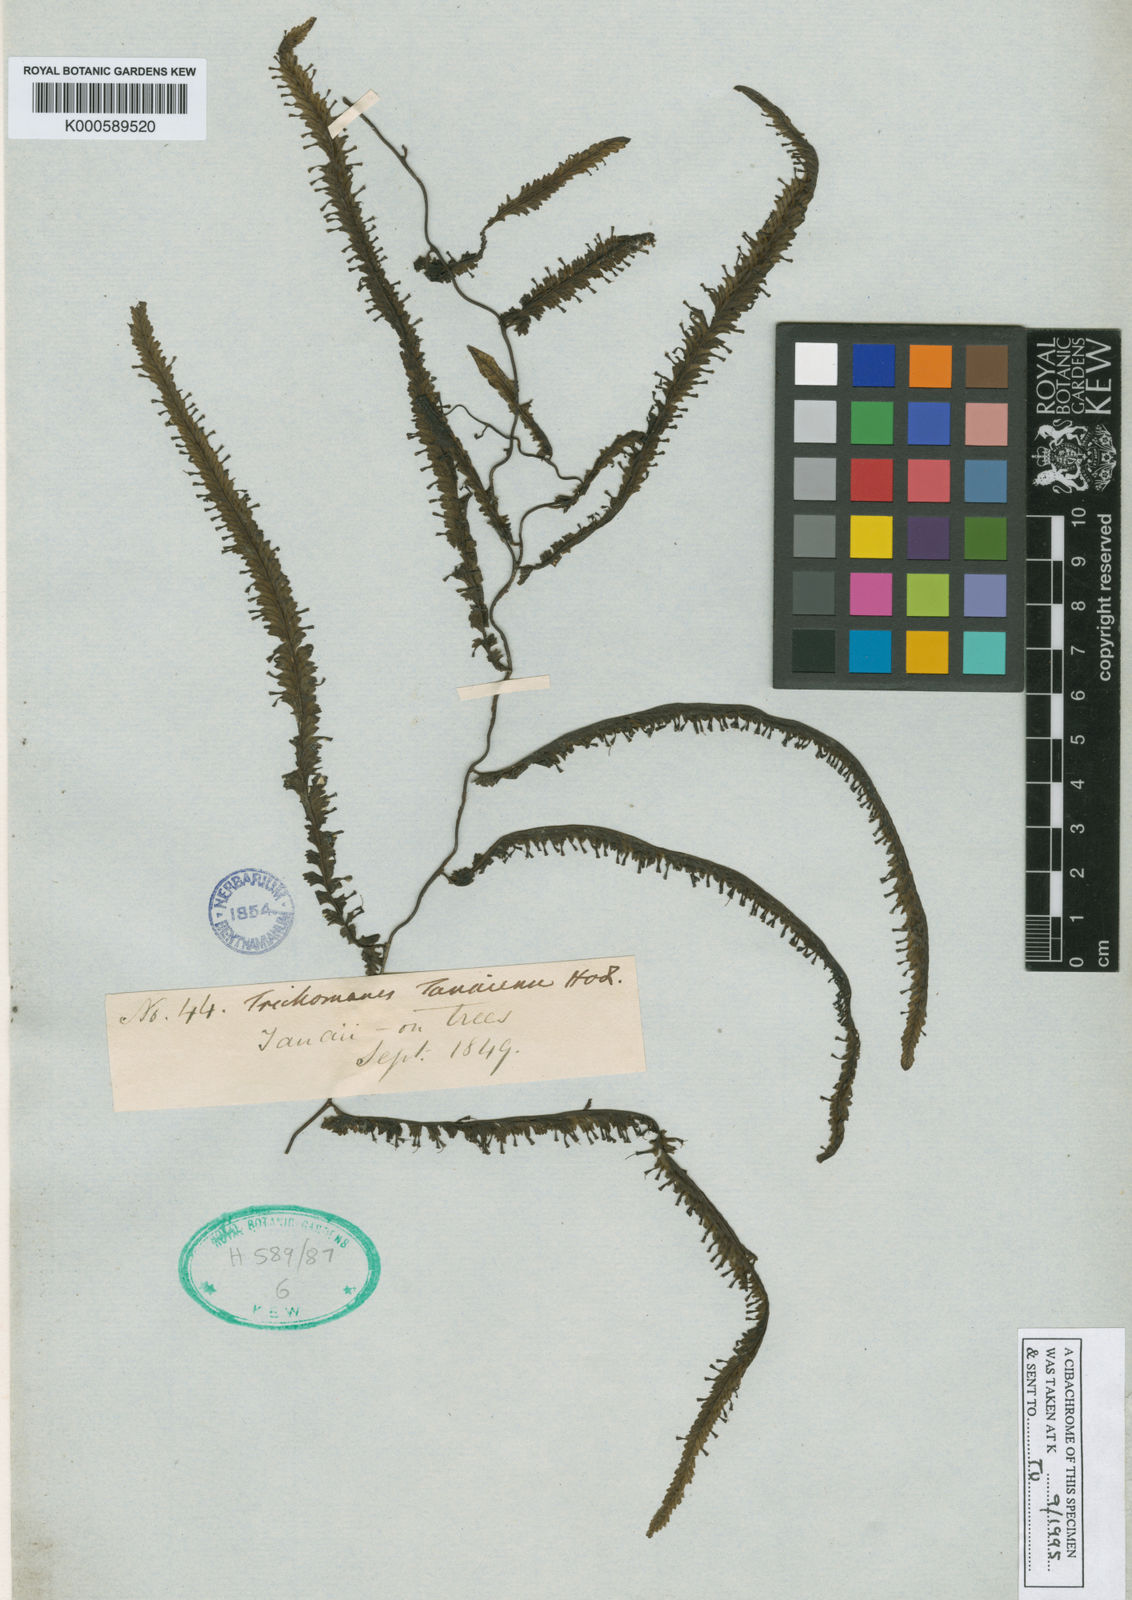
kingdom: Plantae
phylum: Tracheophyta
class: Polypodiopsida
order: Hymenophyllales
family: Hymenophyllaceae
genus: Trichomanes
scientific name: Trichomanes
